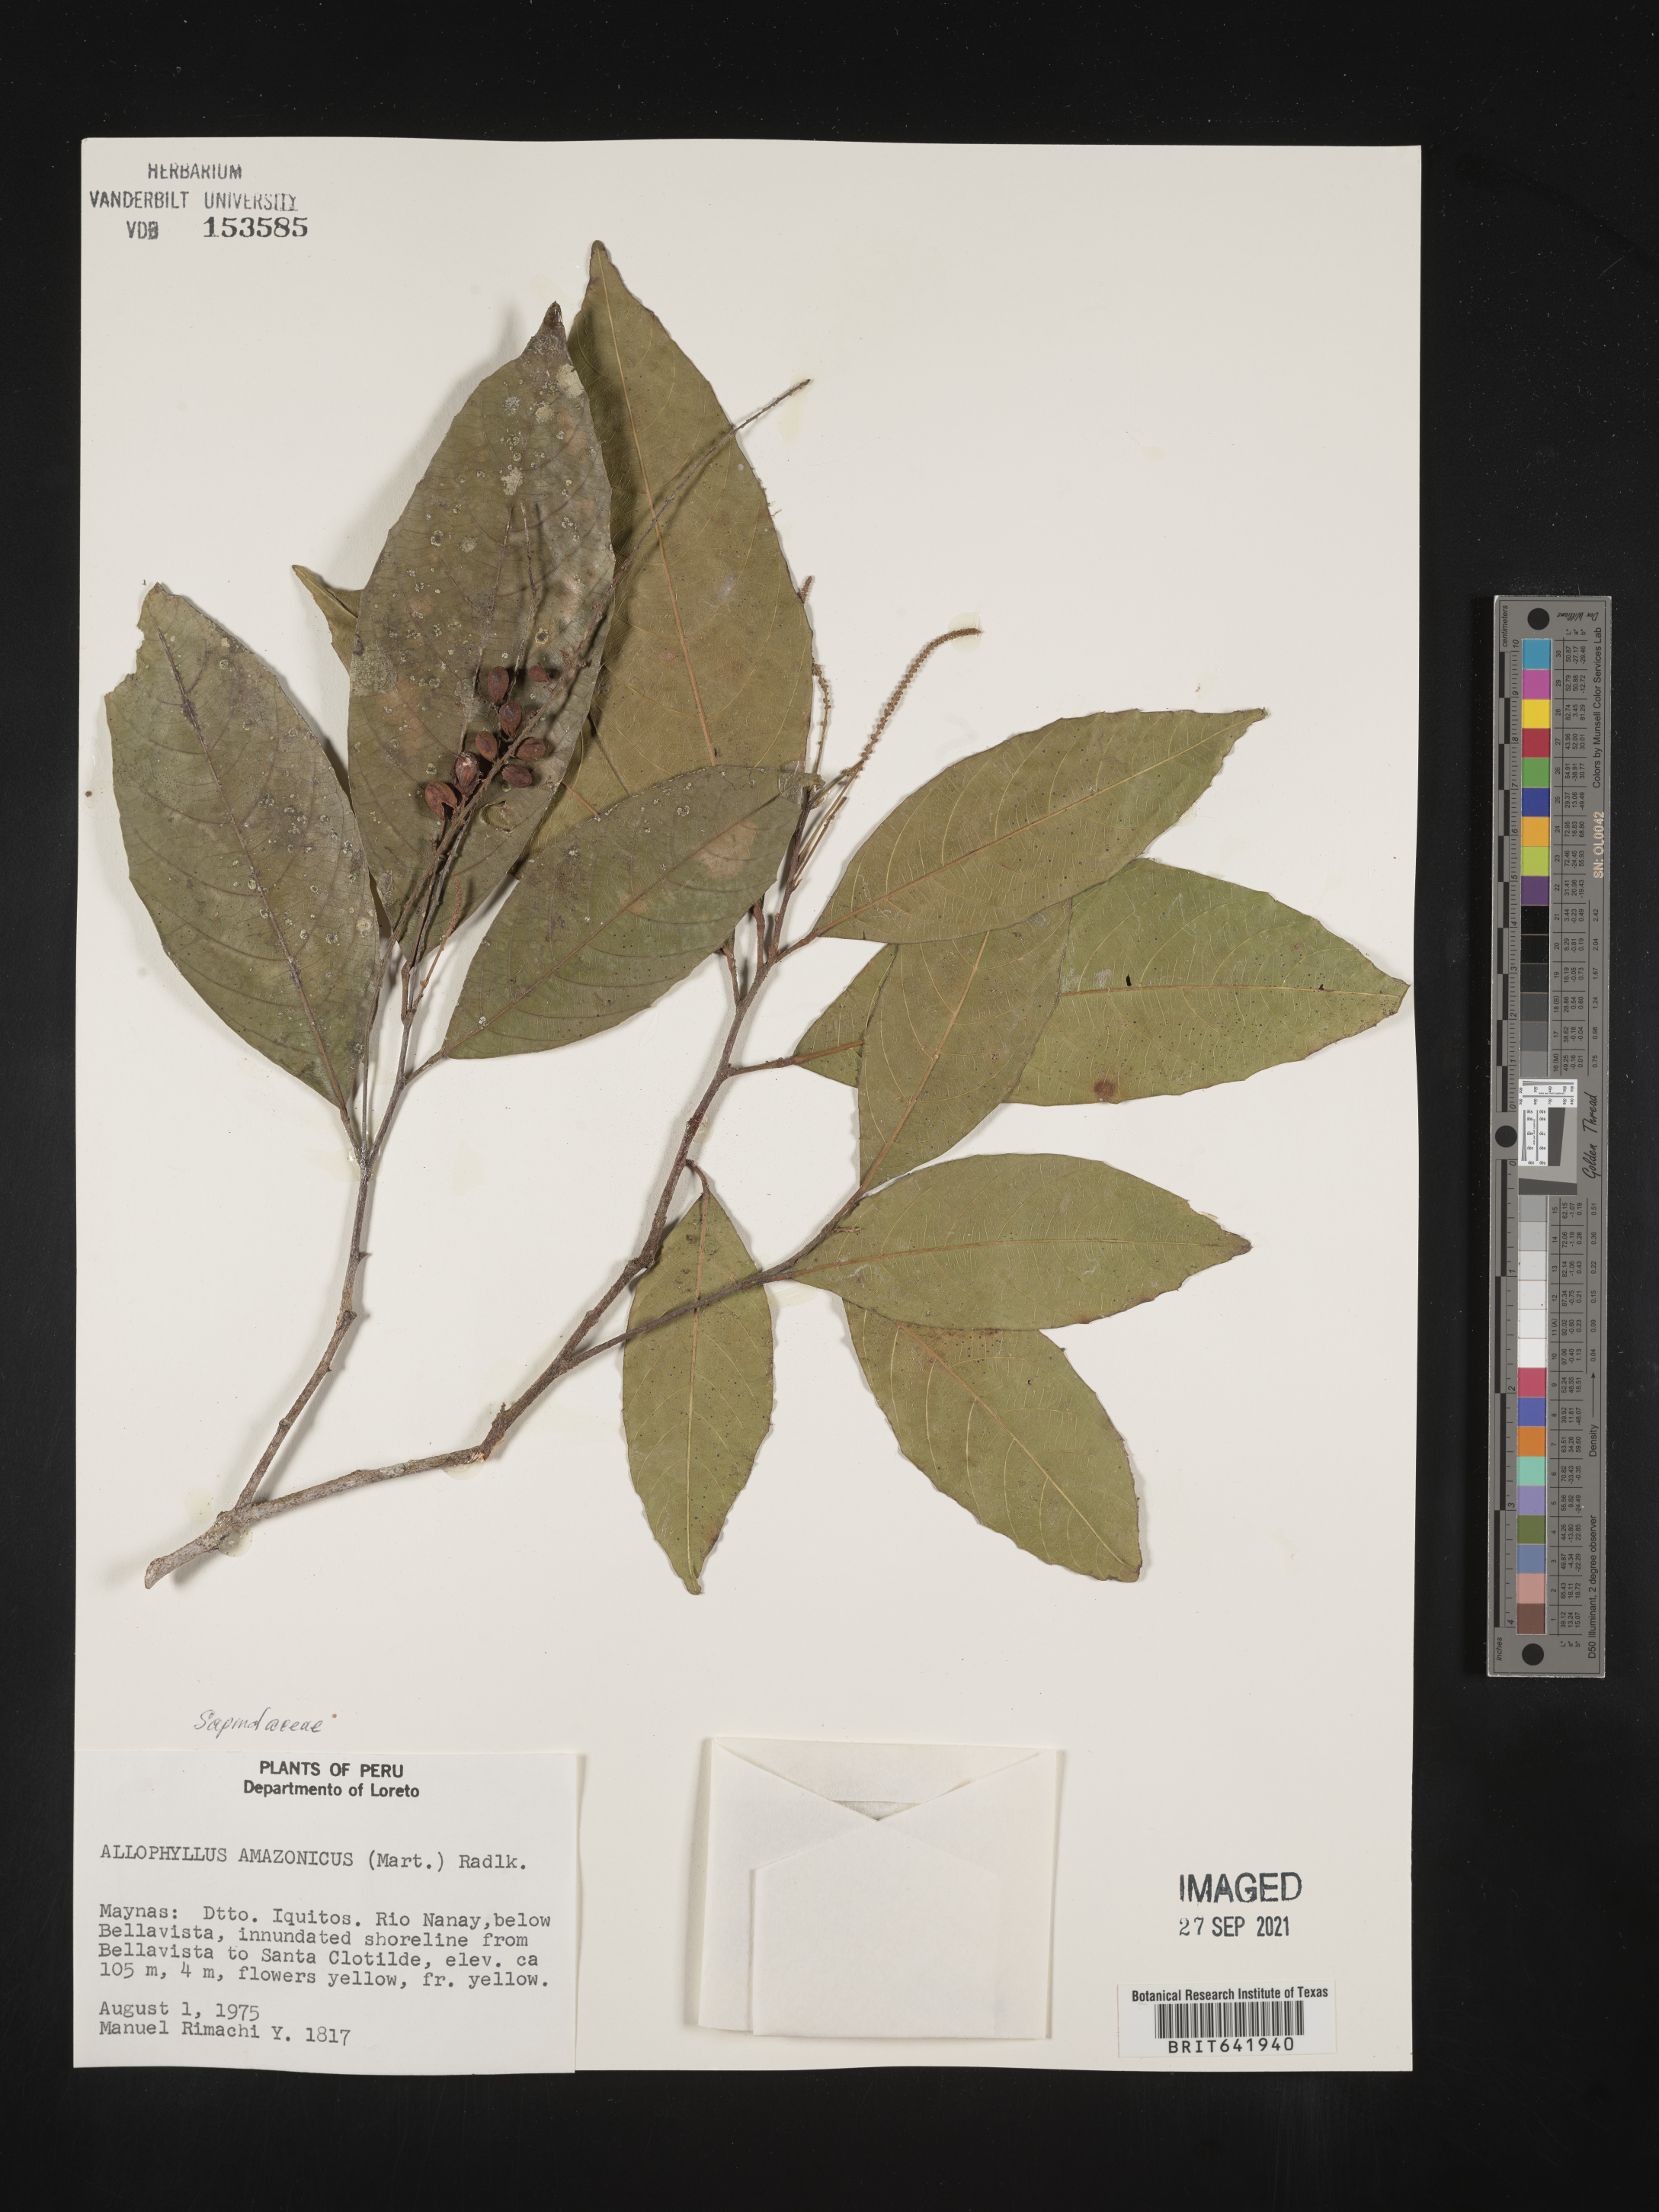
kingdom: Plantae
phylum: Tracheophyta
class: Magnoliopsida
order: Sapindales
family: Sapindaceae
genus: Allophylus
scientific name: Allophylus
